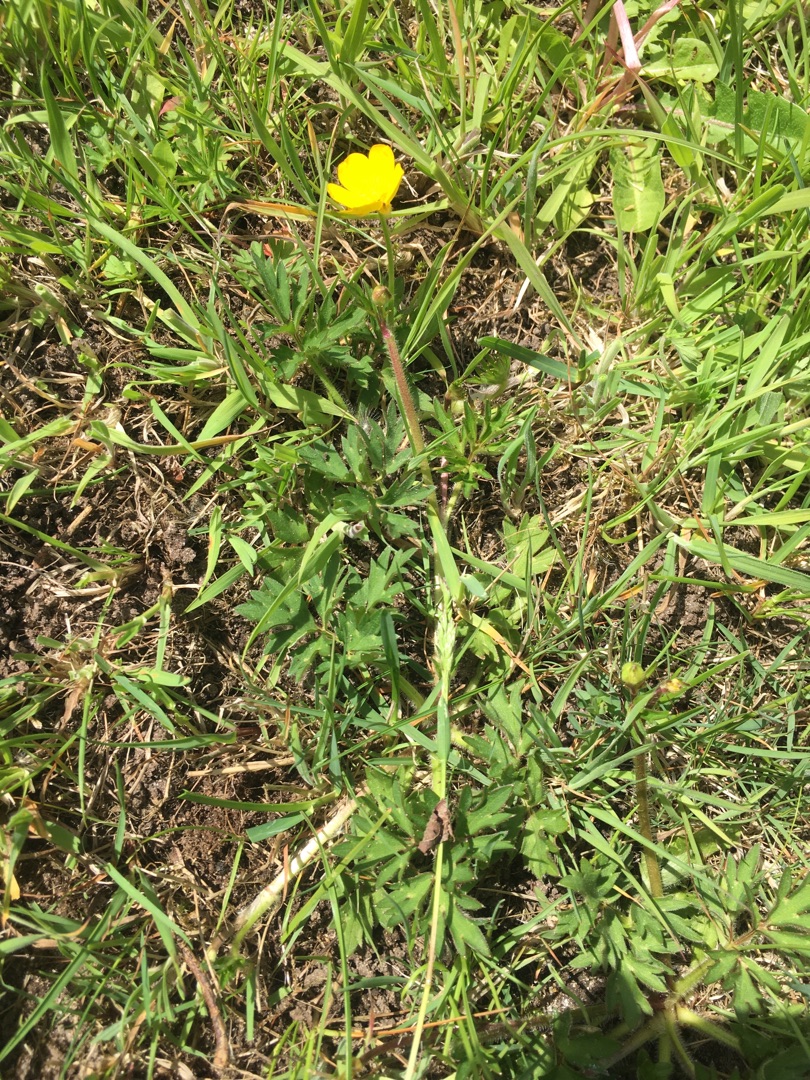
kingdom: Plantae
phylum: Tracheophyta
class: Magnoliopsida
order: Ranunculales
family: Ranunculaceae
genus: Ranunculus
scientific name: Ranunculus repens
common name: Lav ranunkel
